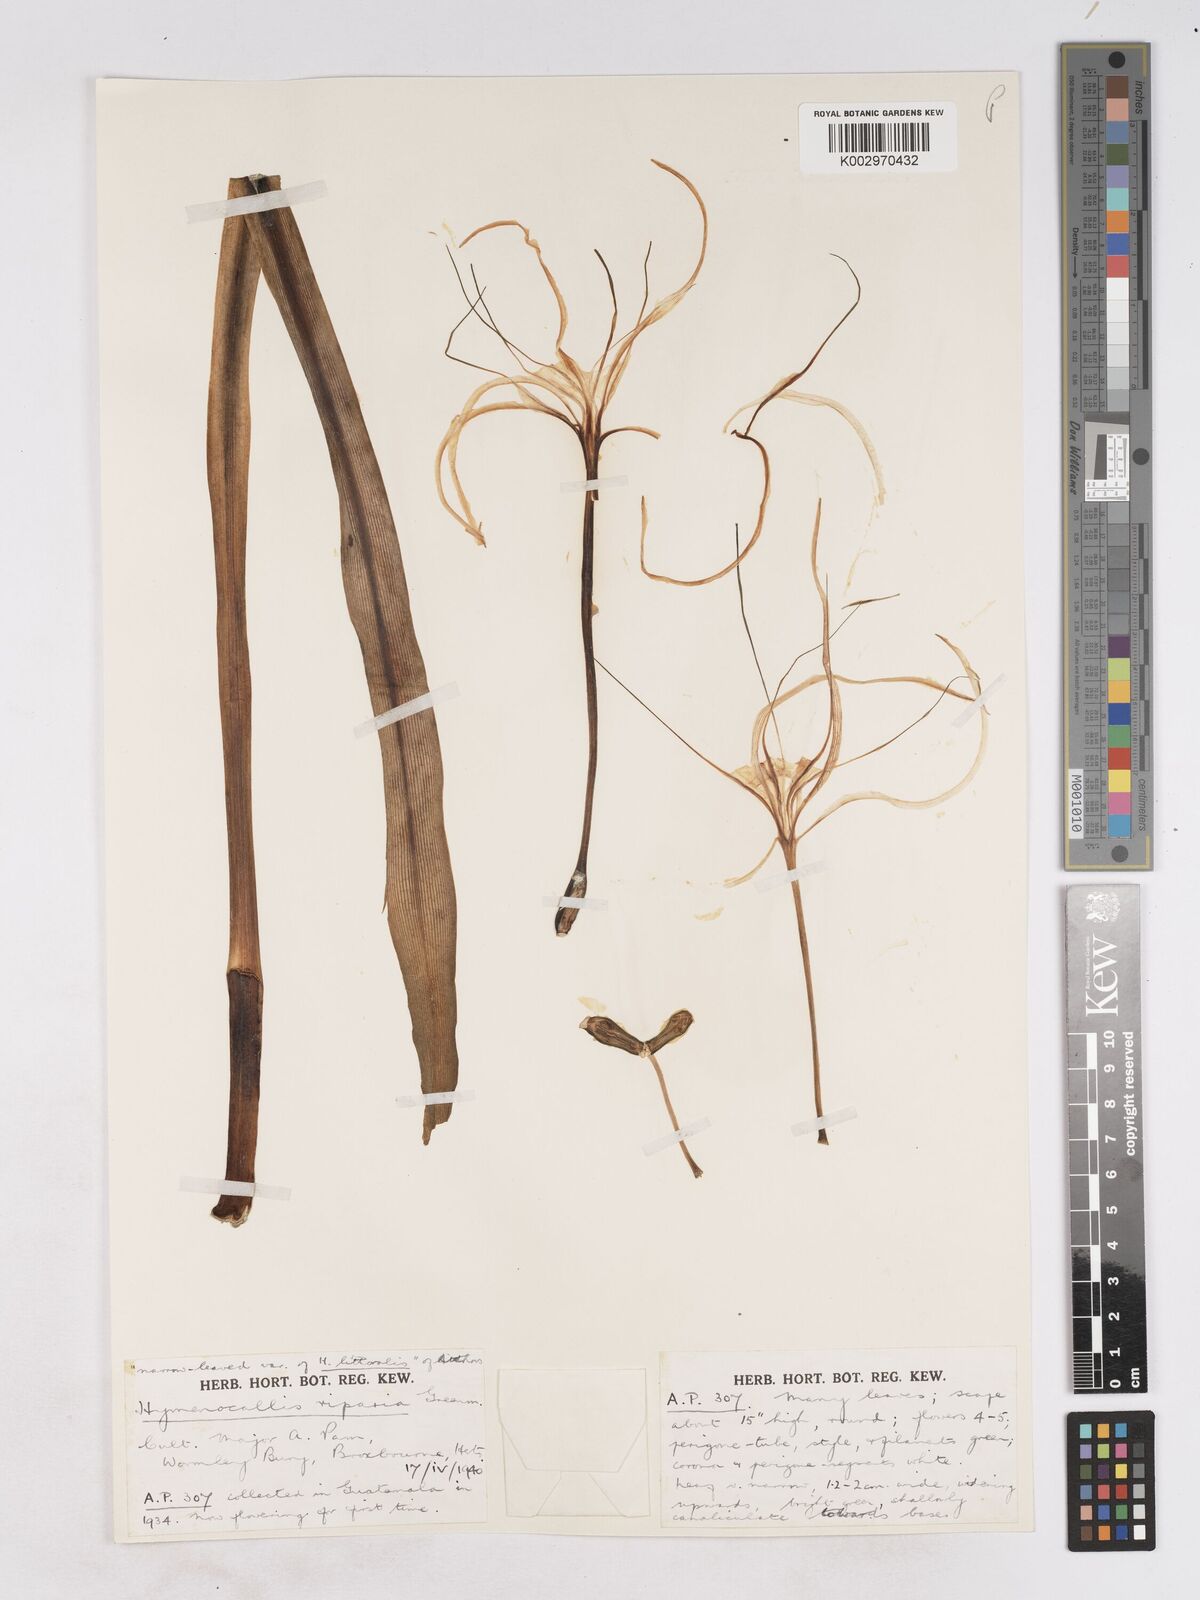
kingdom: Plantae
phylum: Tracheophyta
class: Liliopsida
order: Asparagales
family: Amaryllidaceae
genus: Hymenocallis
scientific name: Hymenocallis acutifolia
